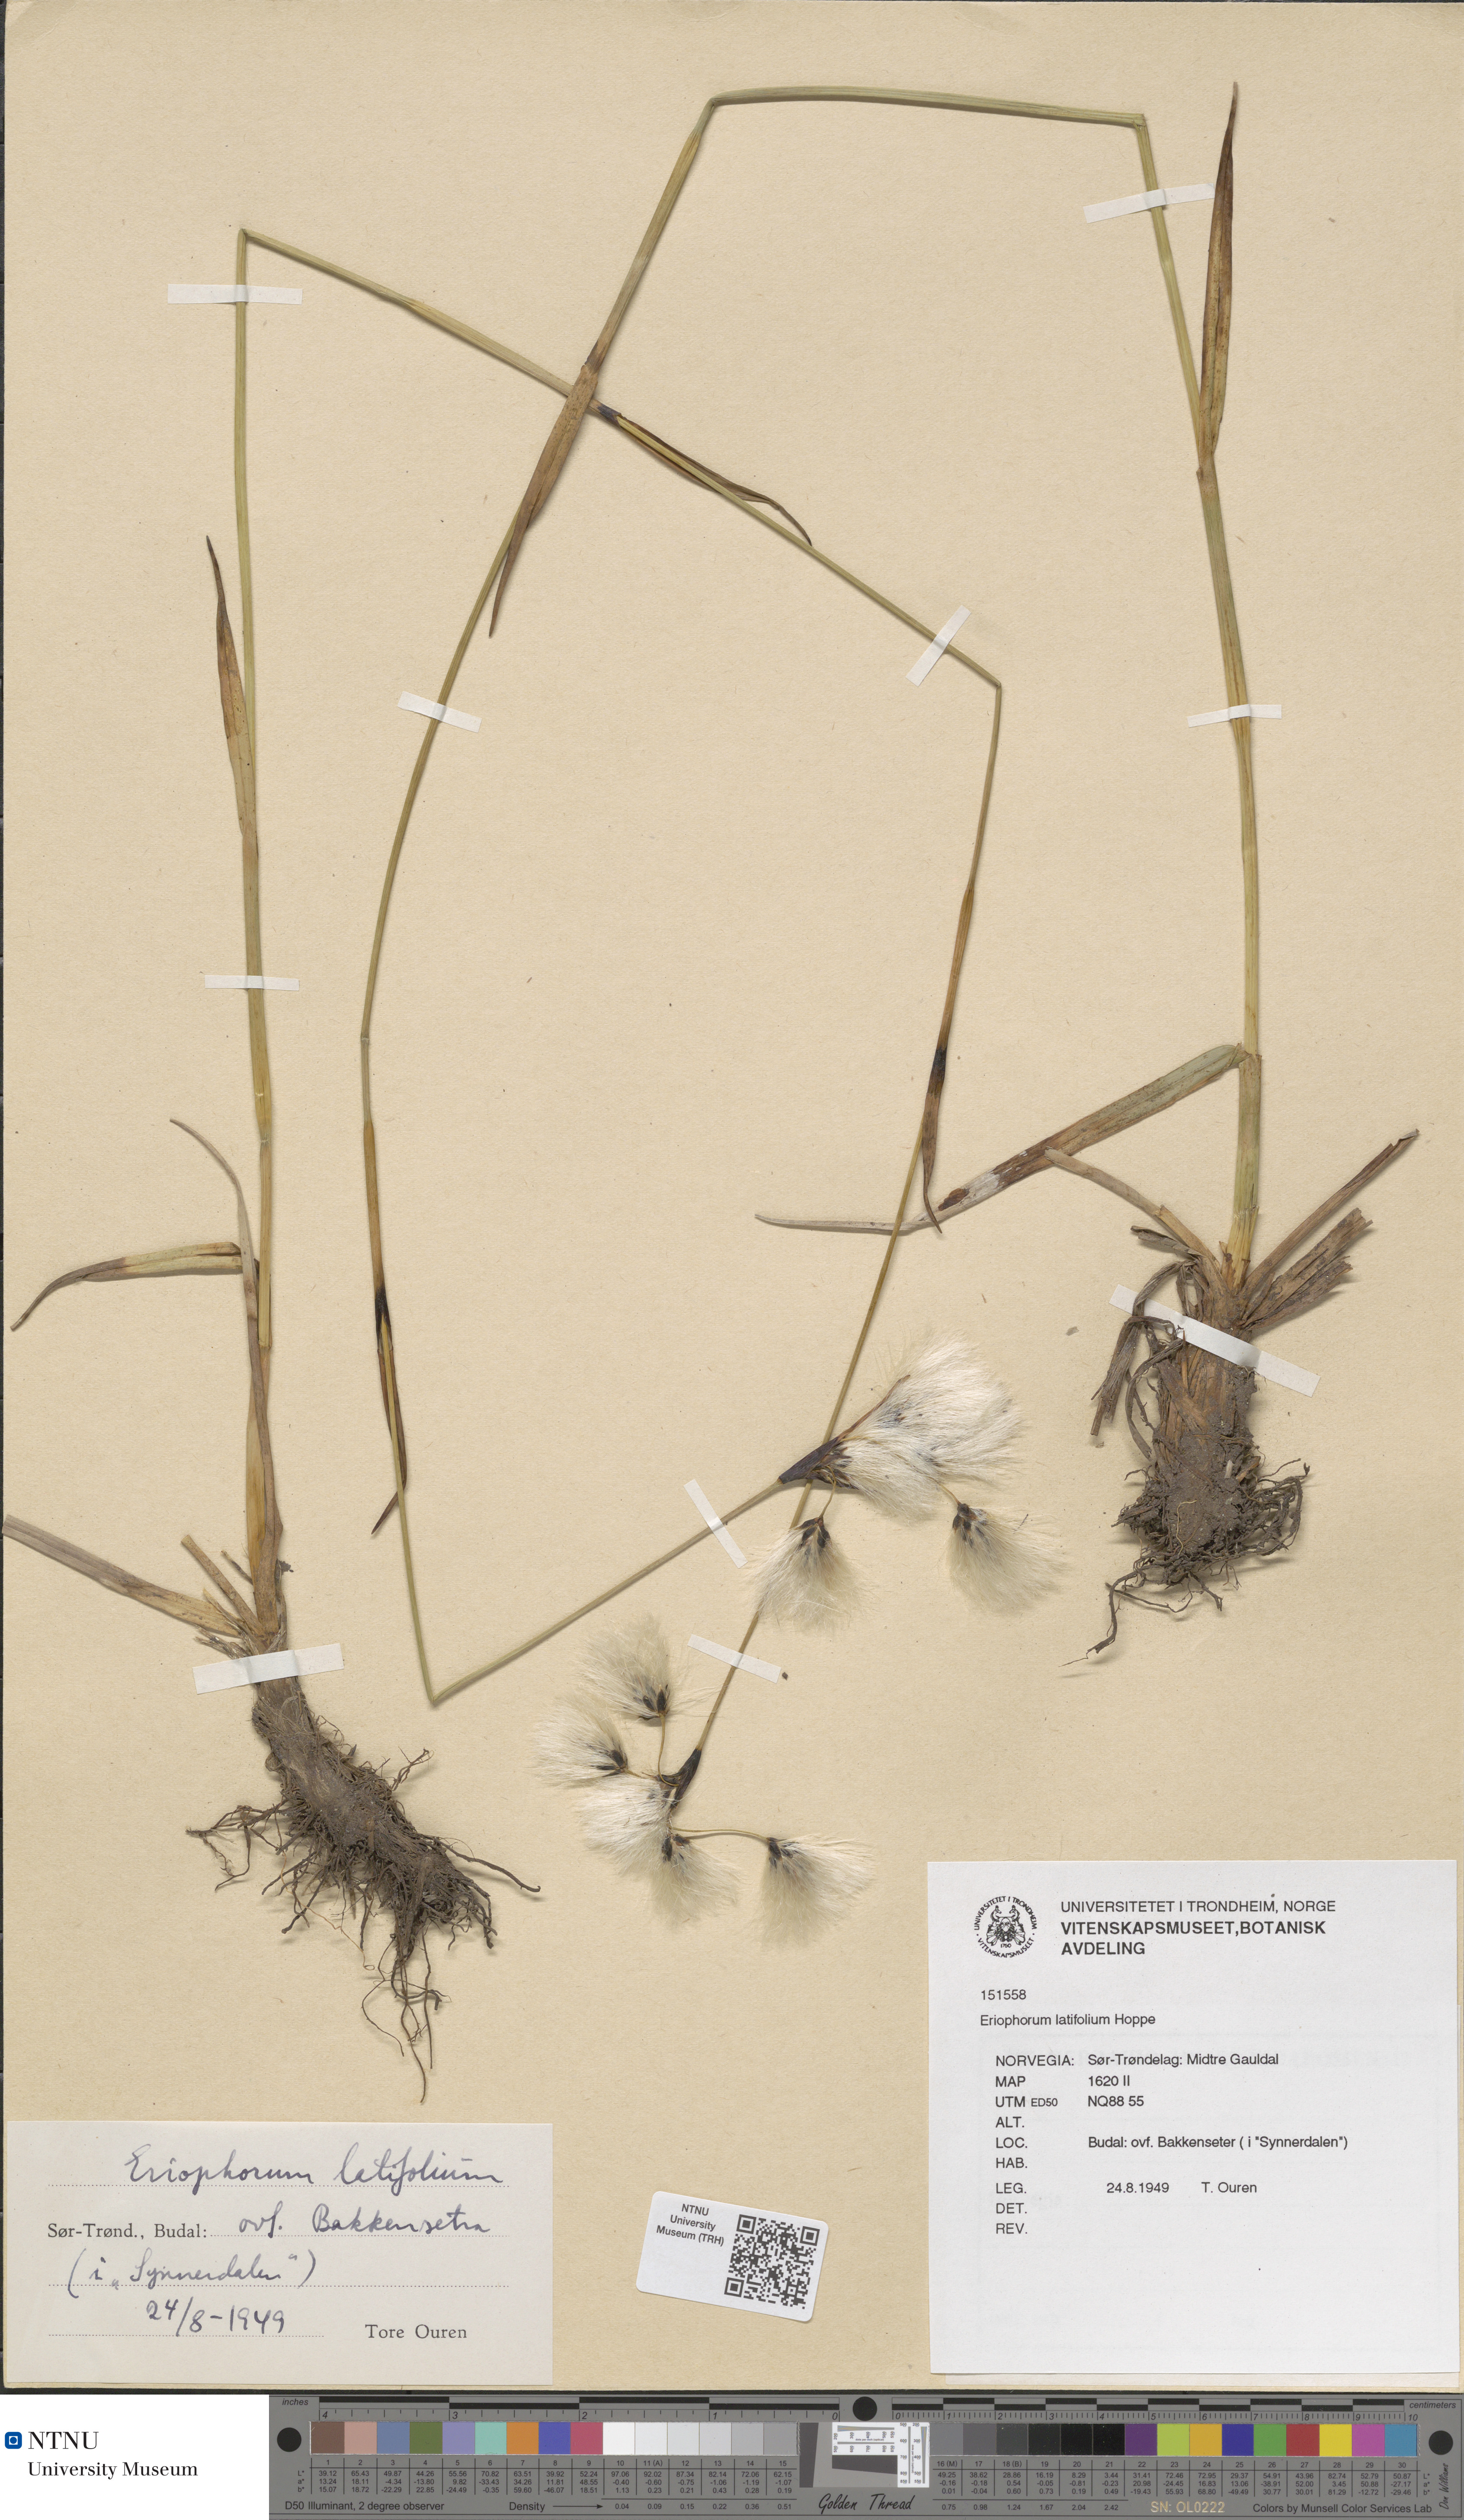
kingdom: Plantae
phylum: Tracheophyta
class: Liliopsida
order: Poales
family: Cyperaceae
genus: Eriophorum
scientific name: Eriophorum latifolium
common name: Broad-leaved cottongrass
